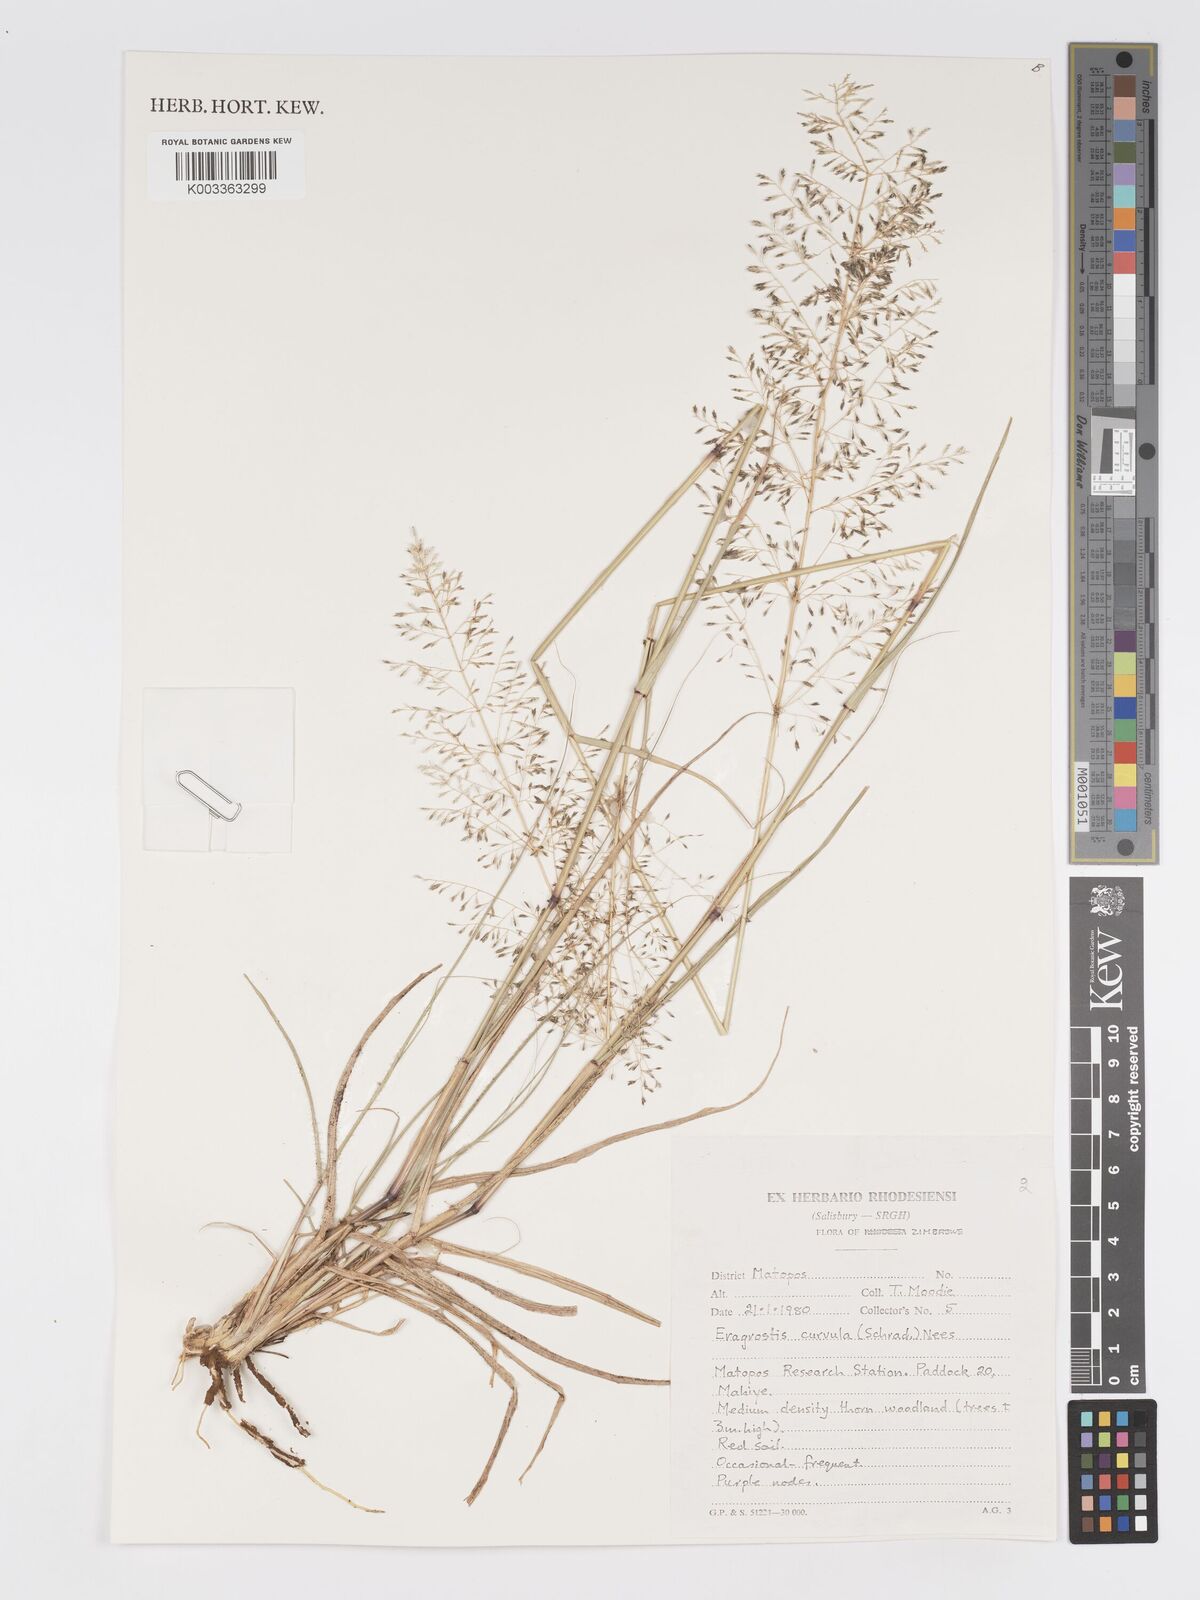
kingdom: Plantae
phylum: Tracheophyta
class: Liliopsida
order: Poales
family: Poaceae
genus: Eragrostis
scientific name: Eragrostis curvula
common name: African love-grass
